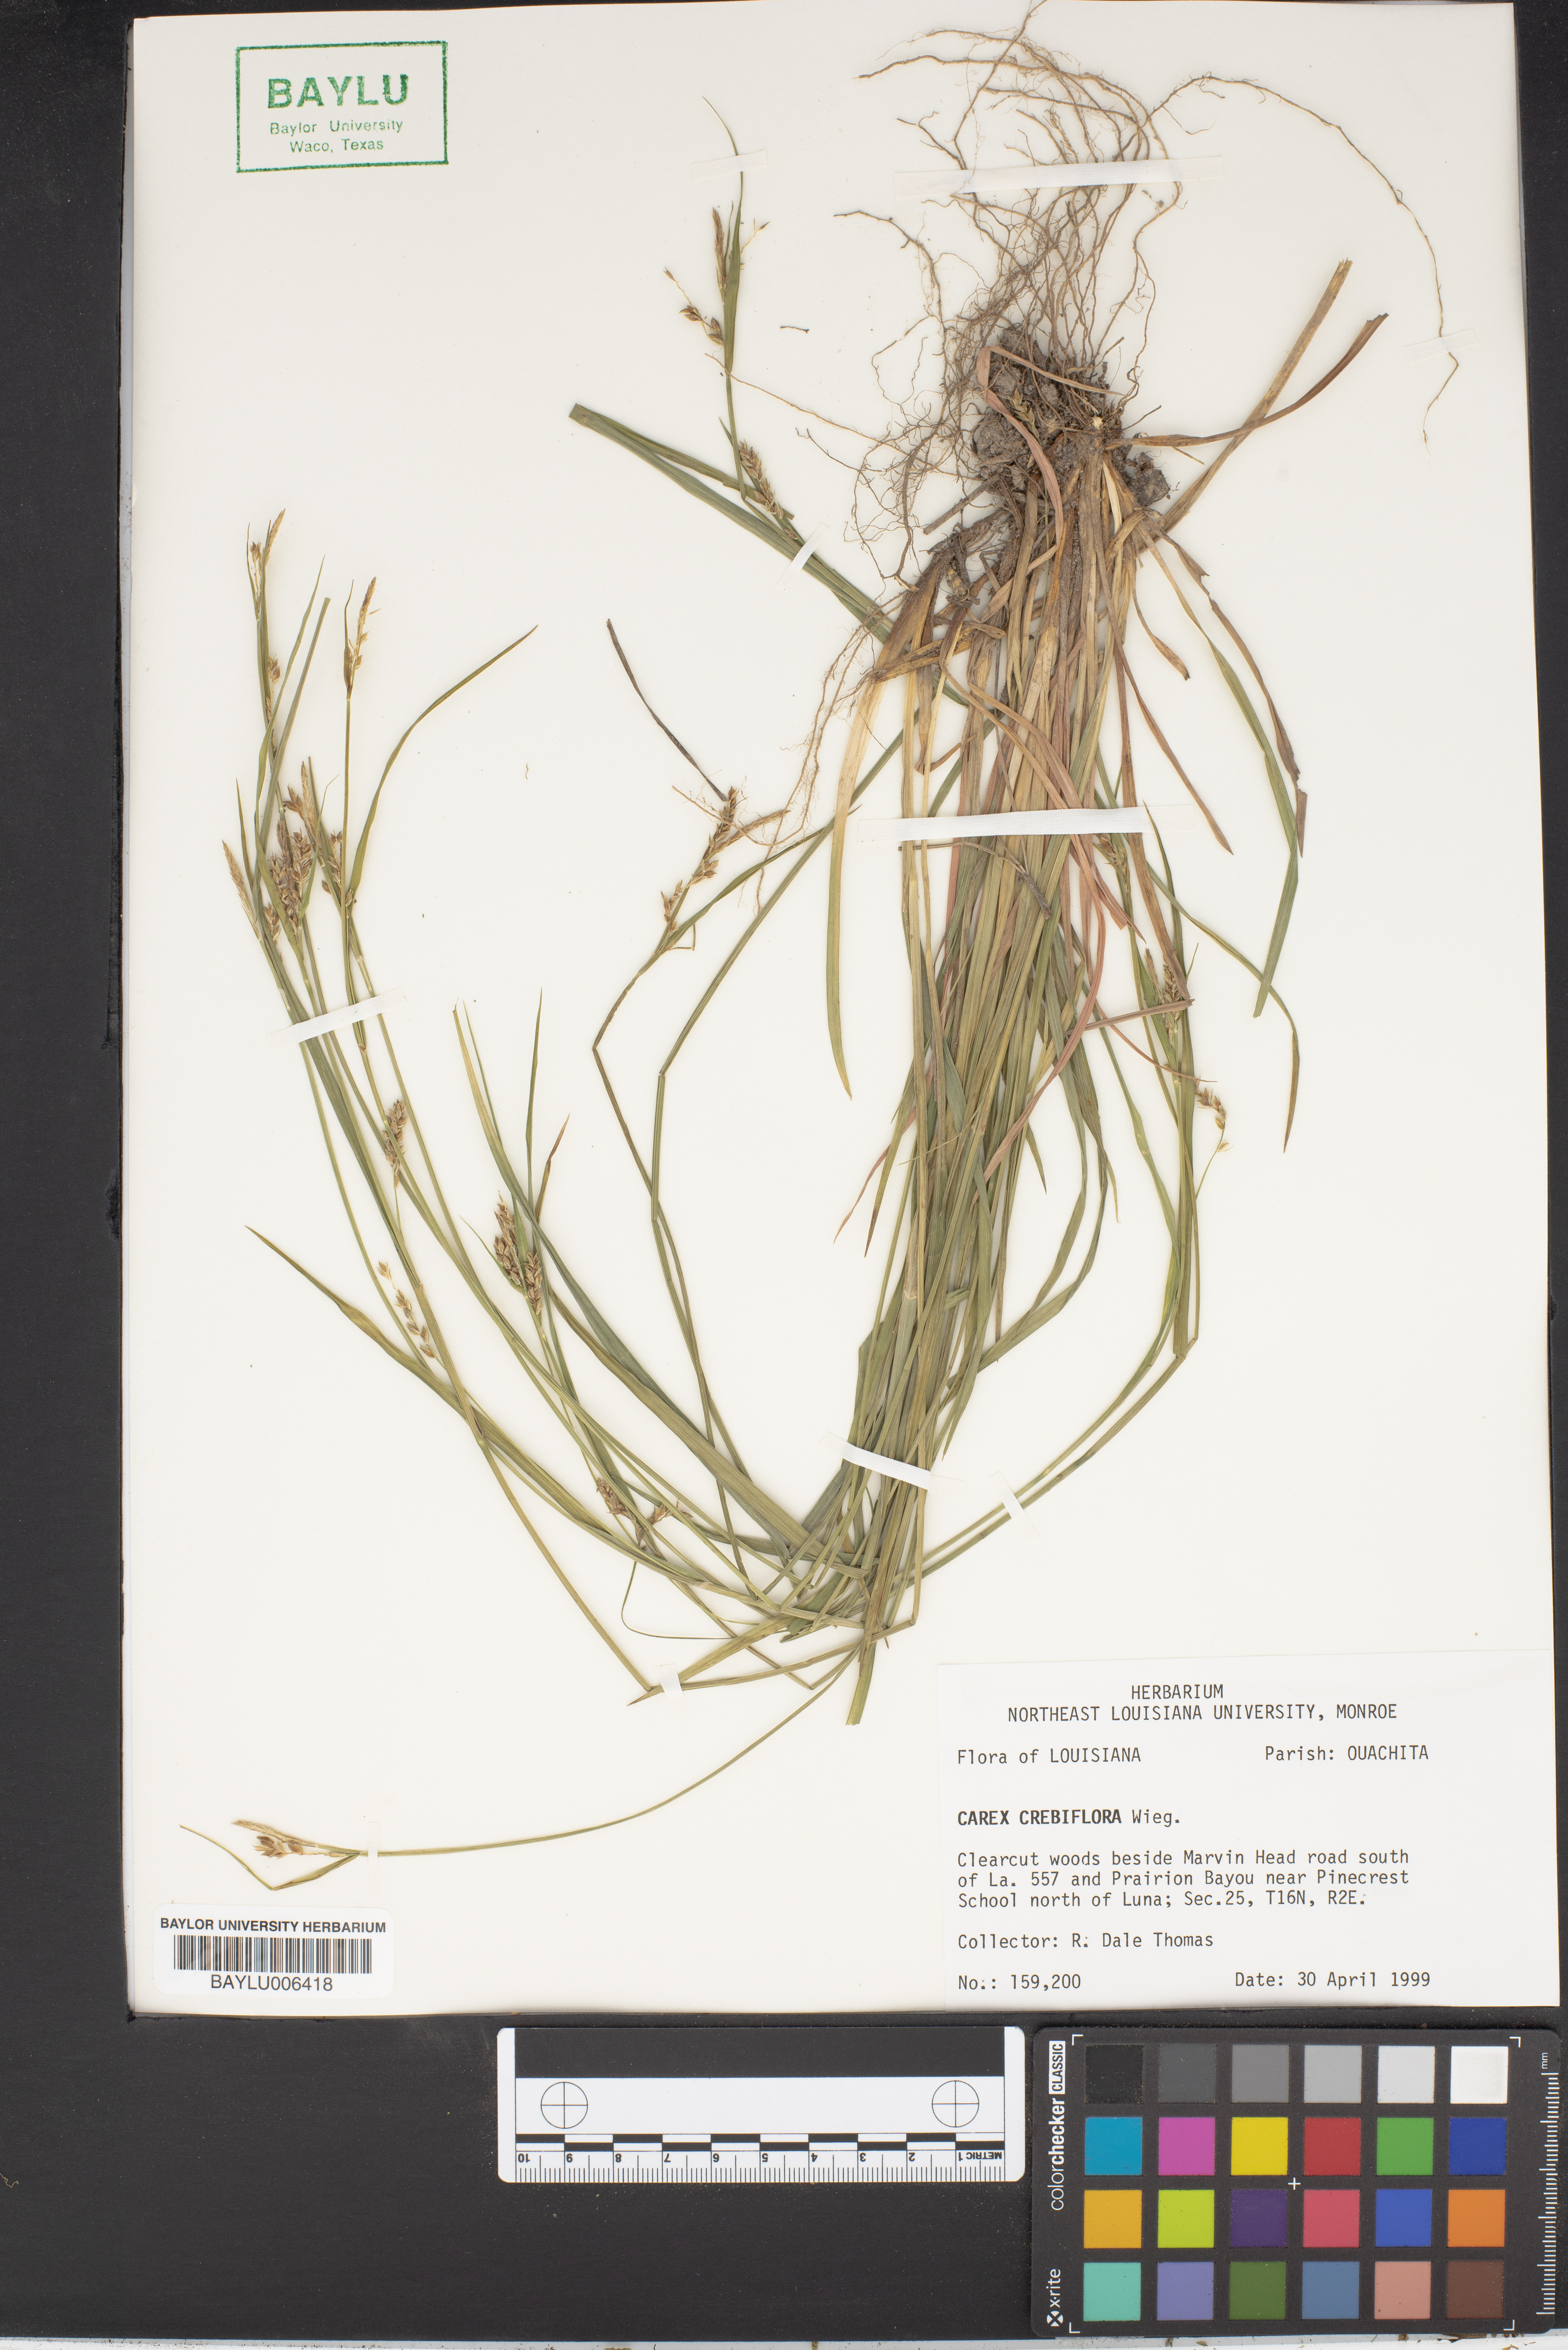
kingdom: Plantae
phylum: Tracheophyta
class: Liliopsida
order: Poales
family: Cyperaceae
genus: Carex
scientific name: Carex crebriflora
